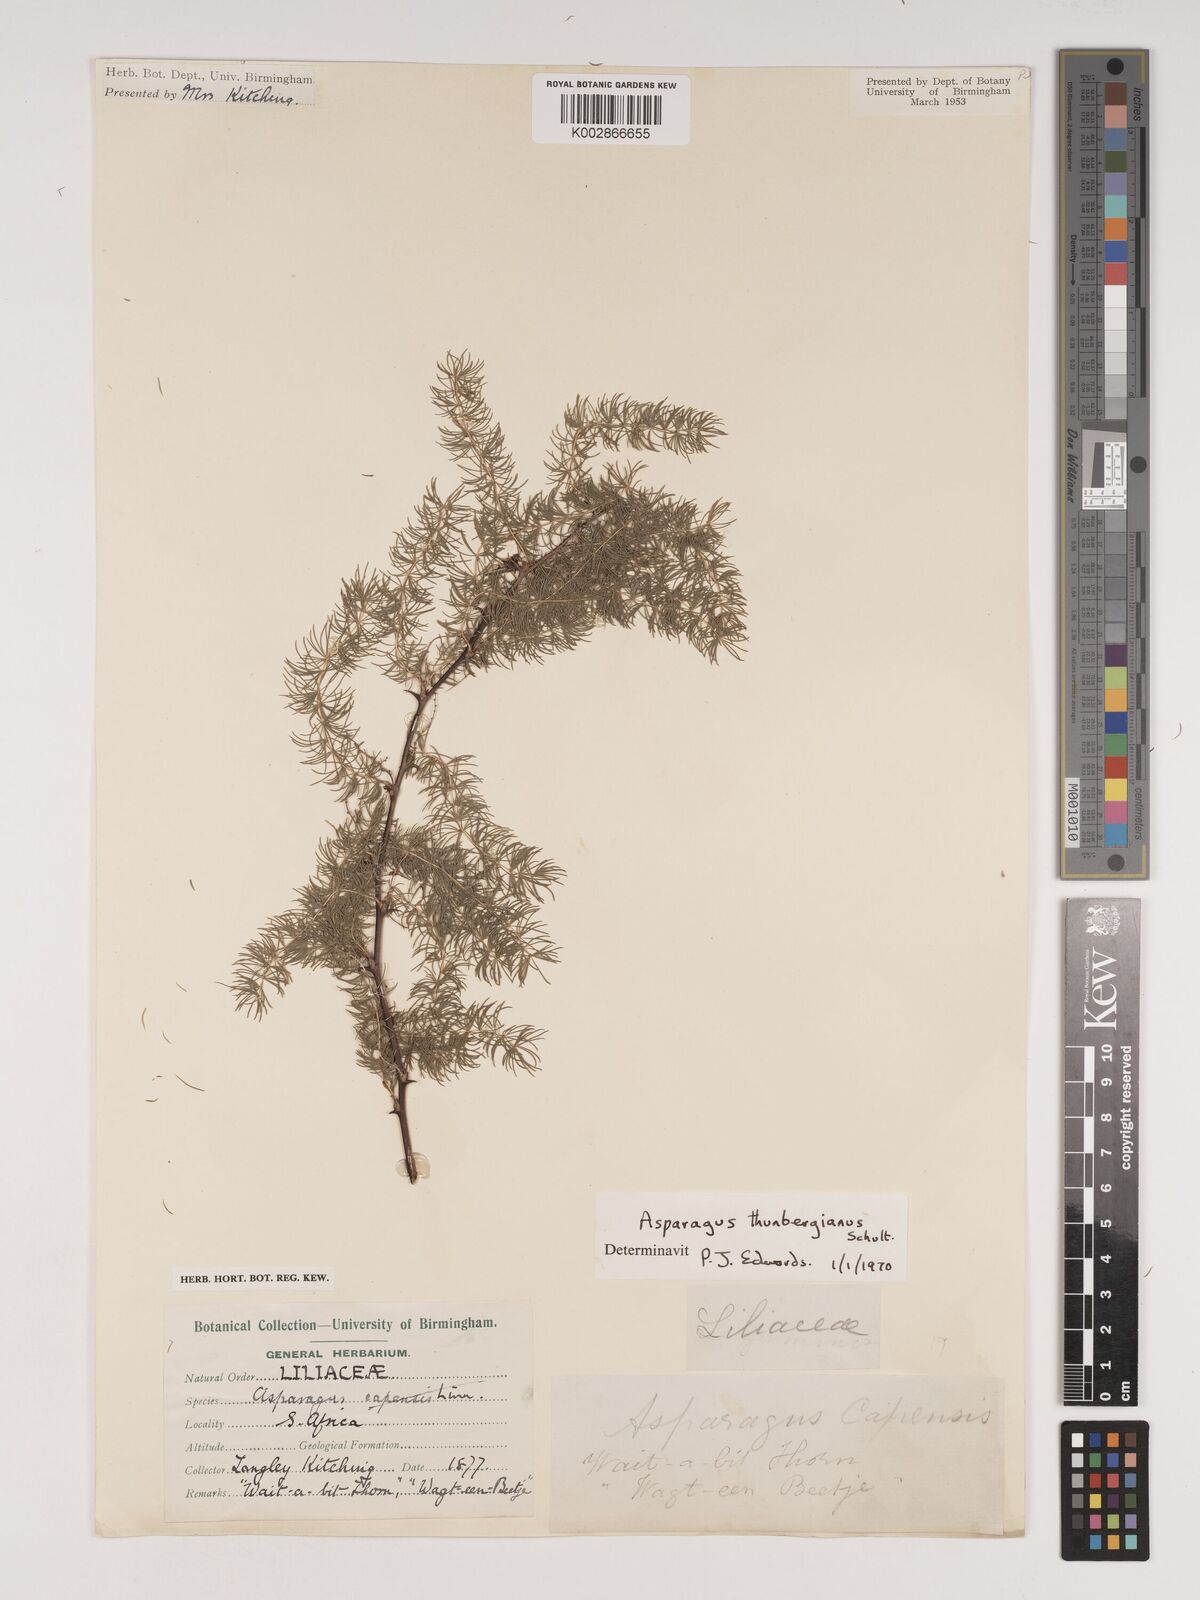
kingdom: Plantae
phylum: Tracheophyta
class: Liliopsida
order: Asparagales
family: Asparagaceae
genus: Asparagus
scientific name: Asparagus rubicundus
